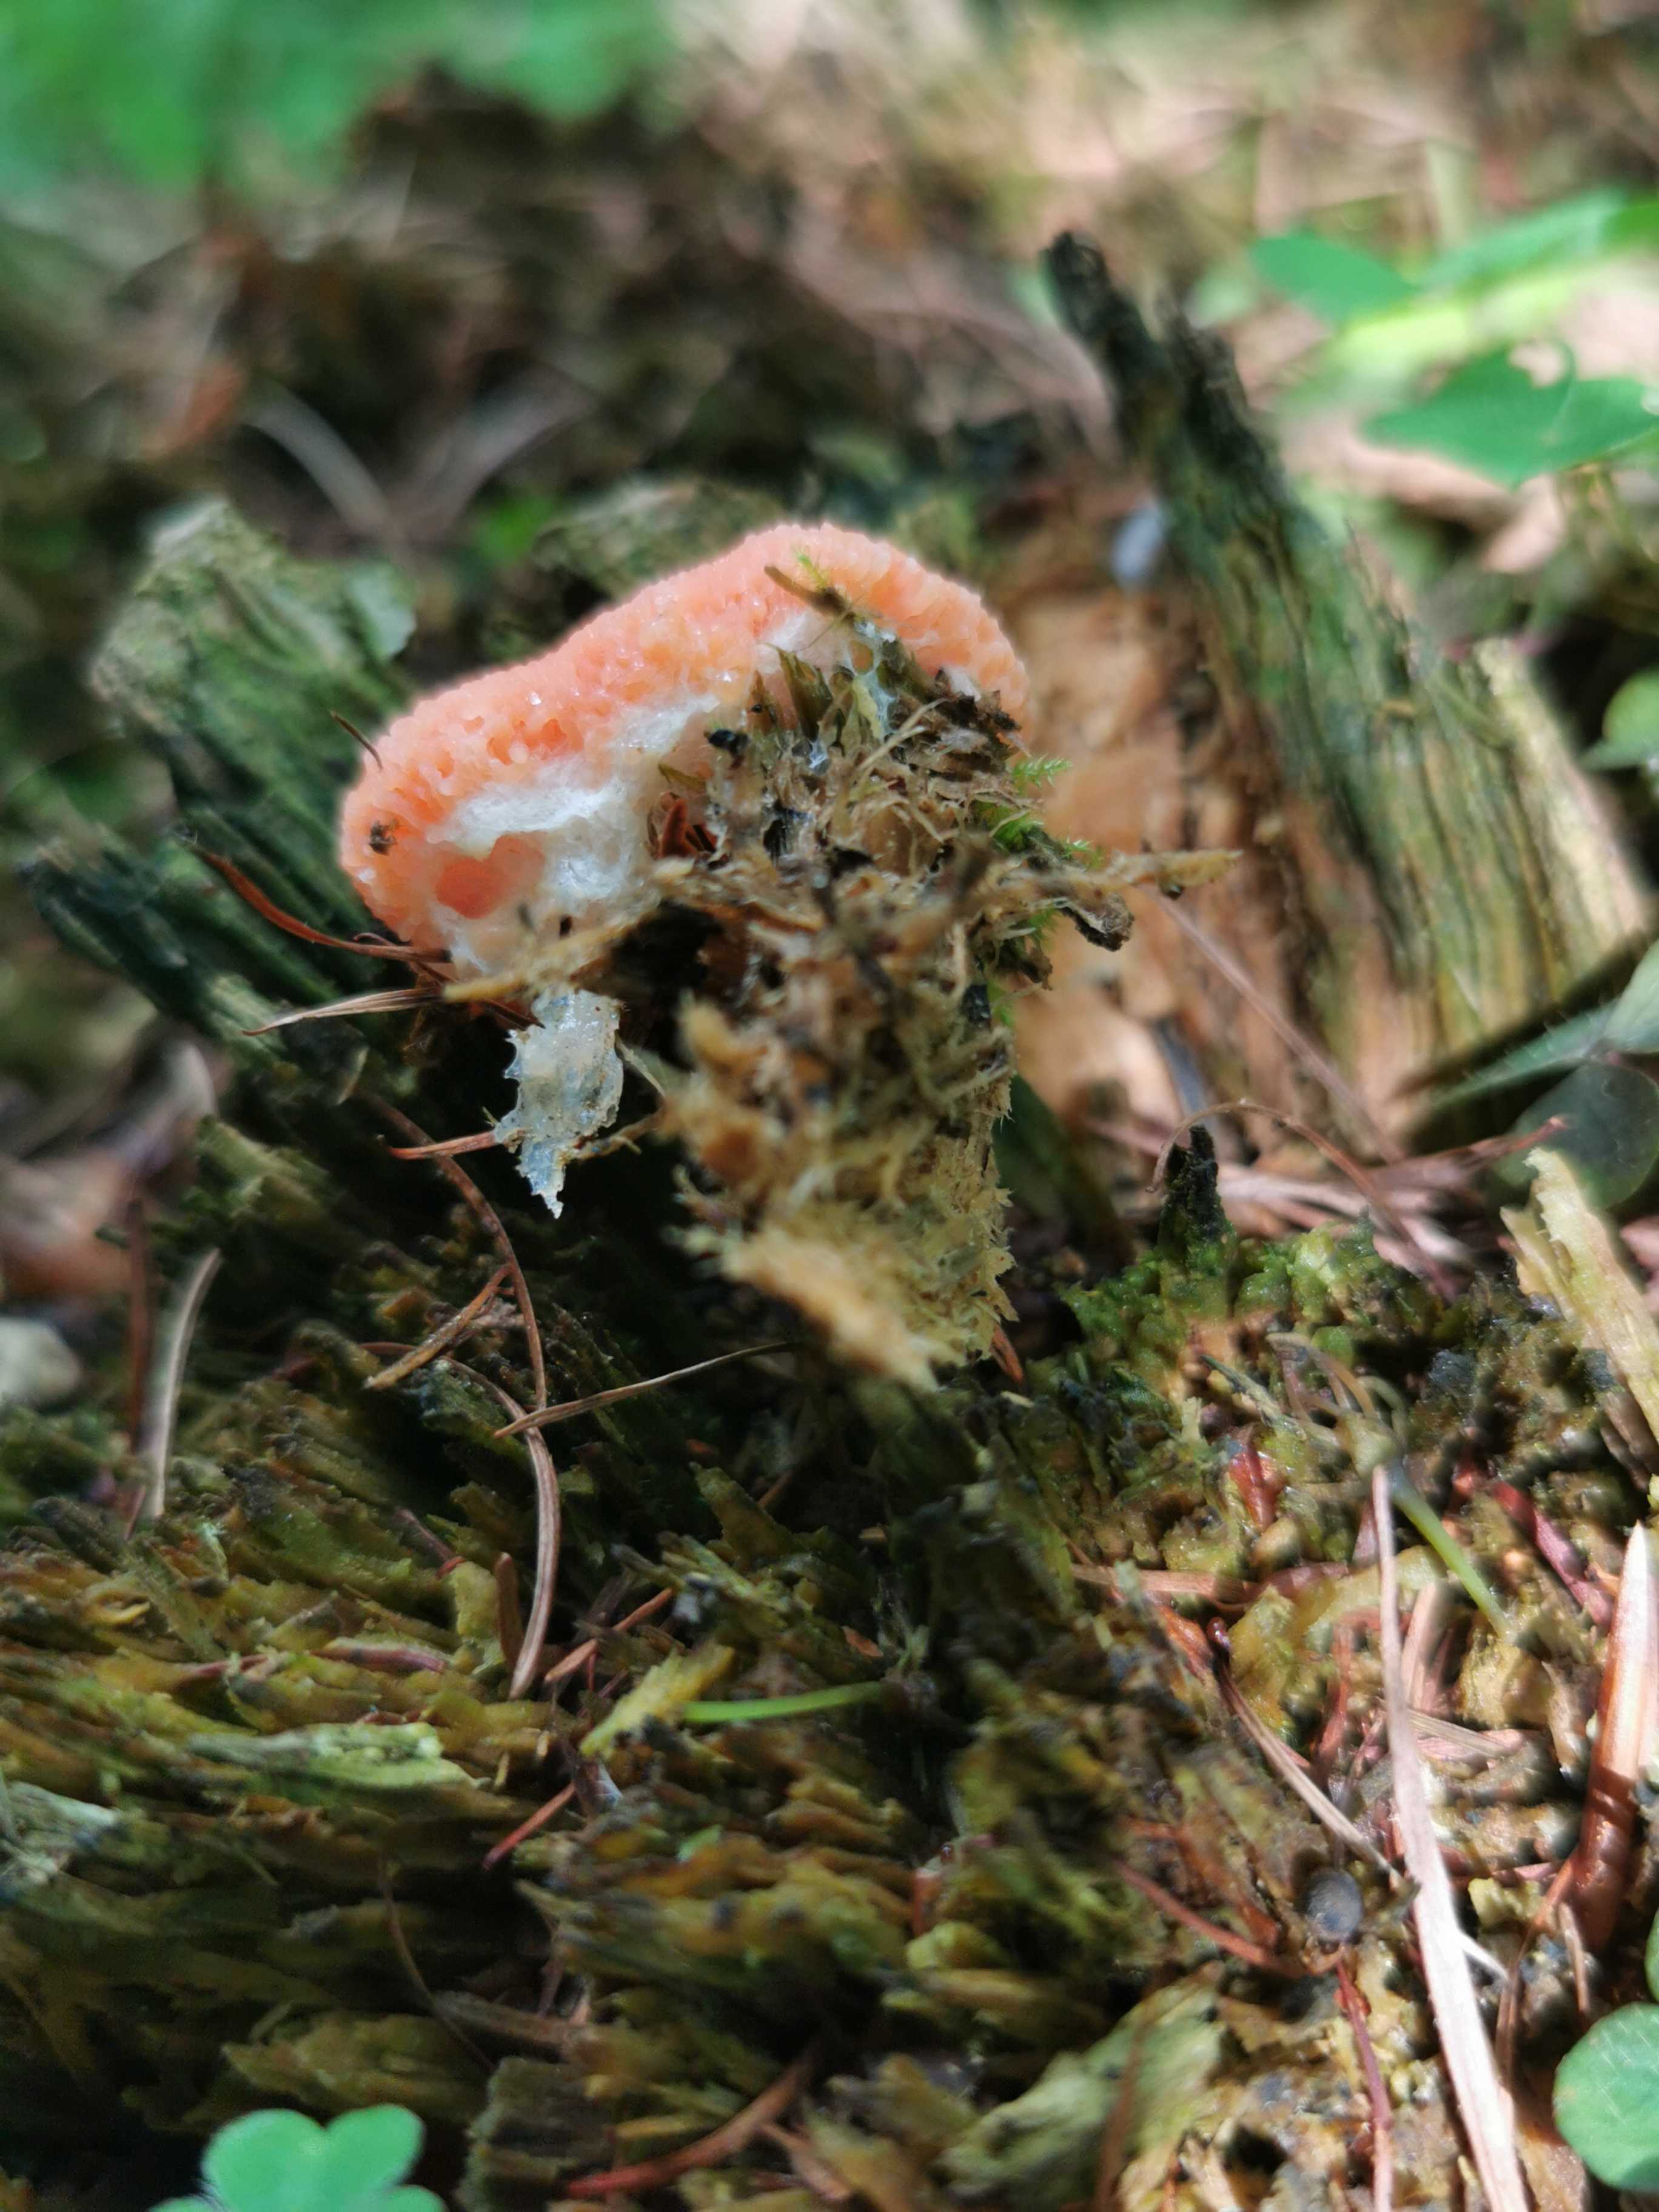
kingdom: Protozoa
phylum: Mycetozoa
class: Myxomycetes
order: Cribrariales
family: Tubiferaceae
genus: Tubifera
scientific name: Tubifera ferruginosa
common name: kanel-støvrør
